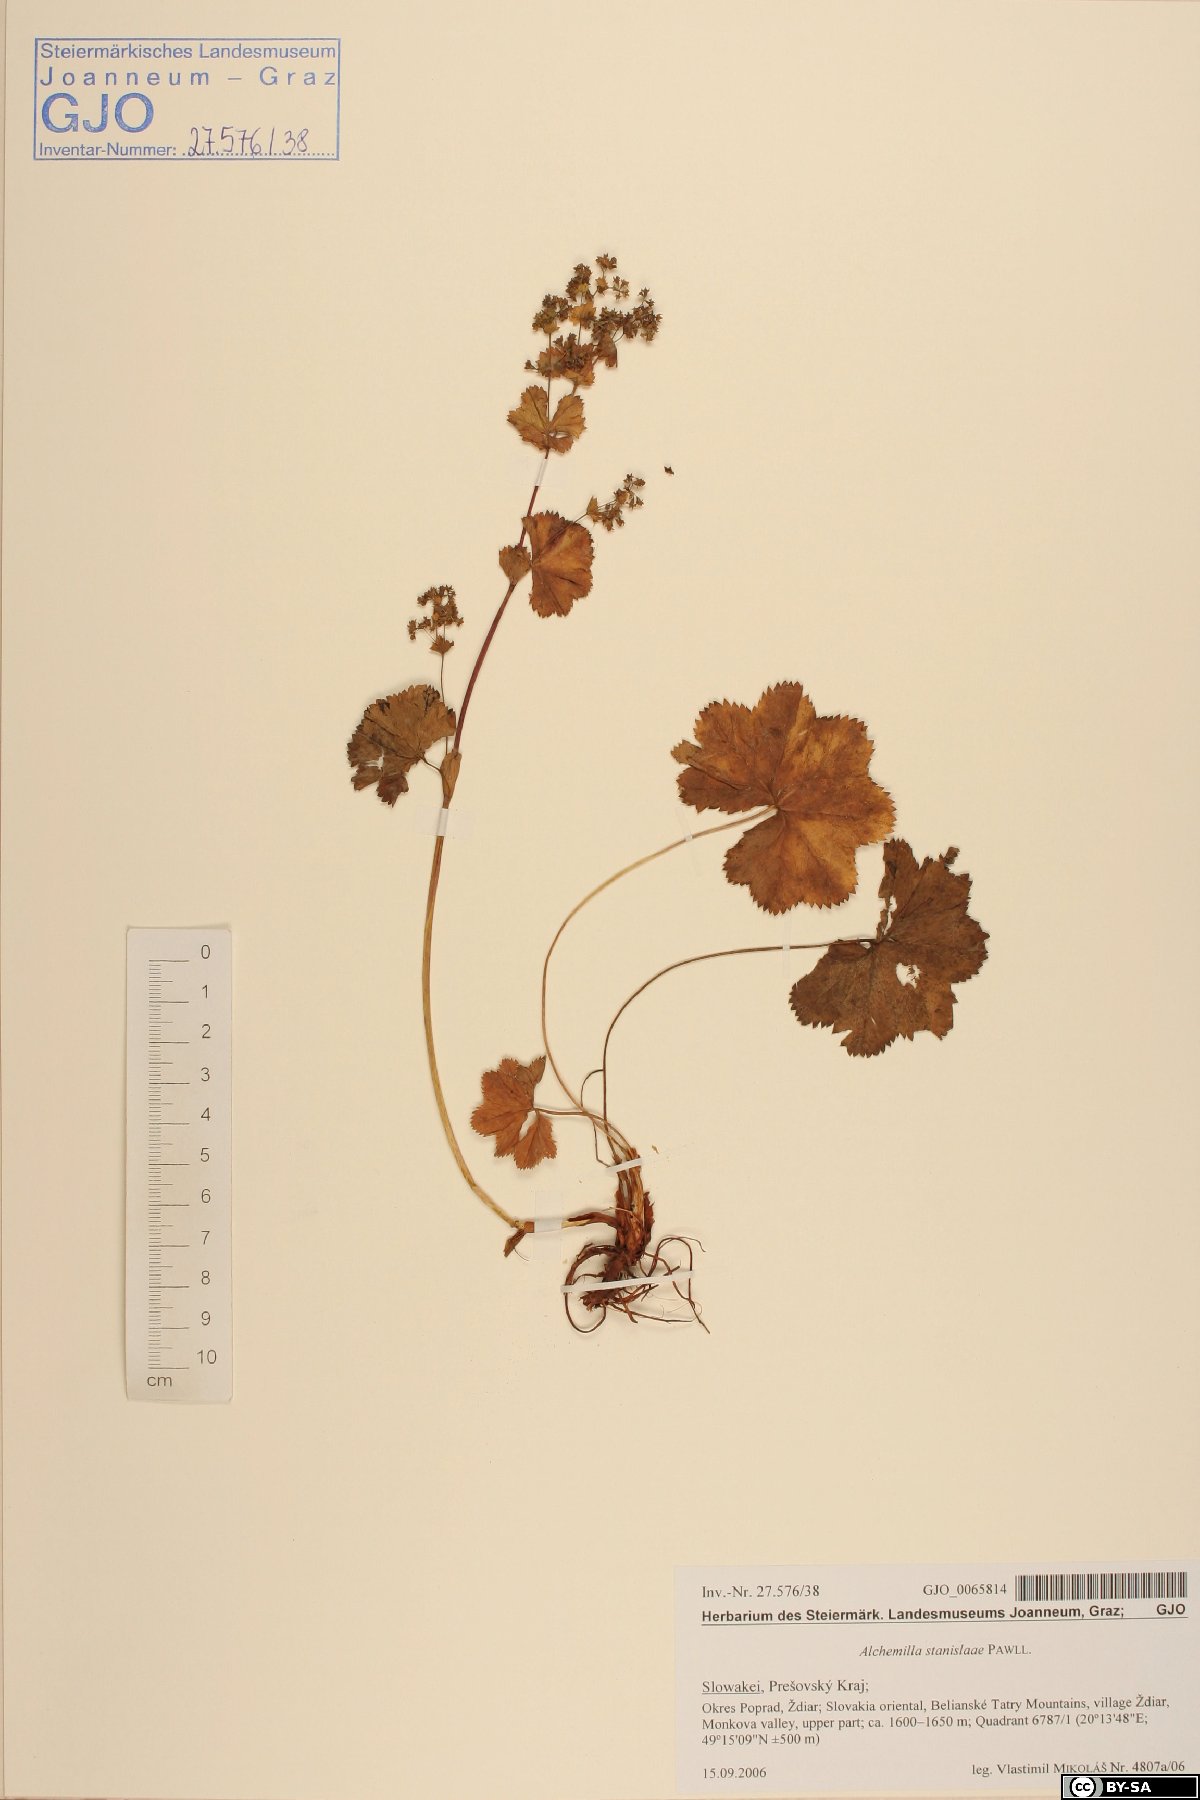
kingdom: Plantae
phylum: Tracheophyta
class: Magnoliopsida
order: Rosales
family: Rosaceae
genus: Alchemilla
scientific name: Alchemilla stanislaae
